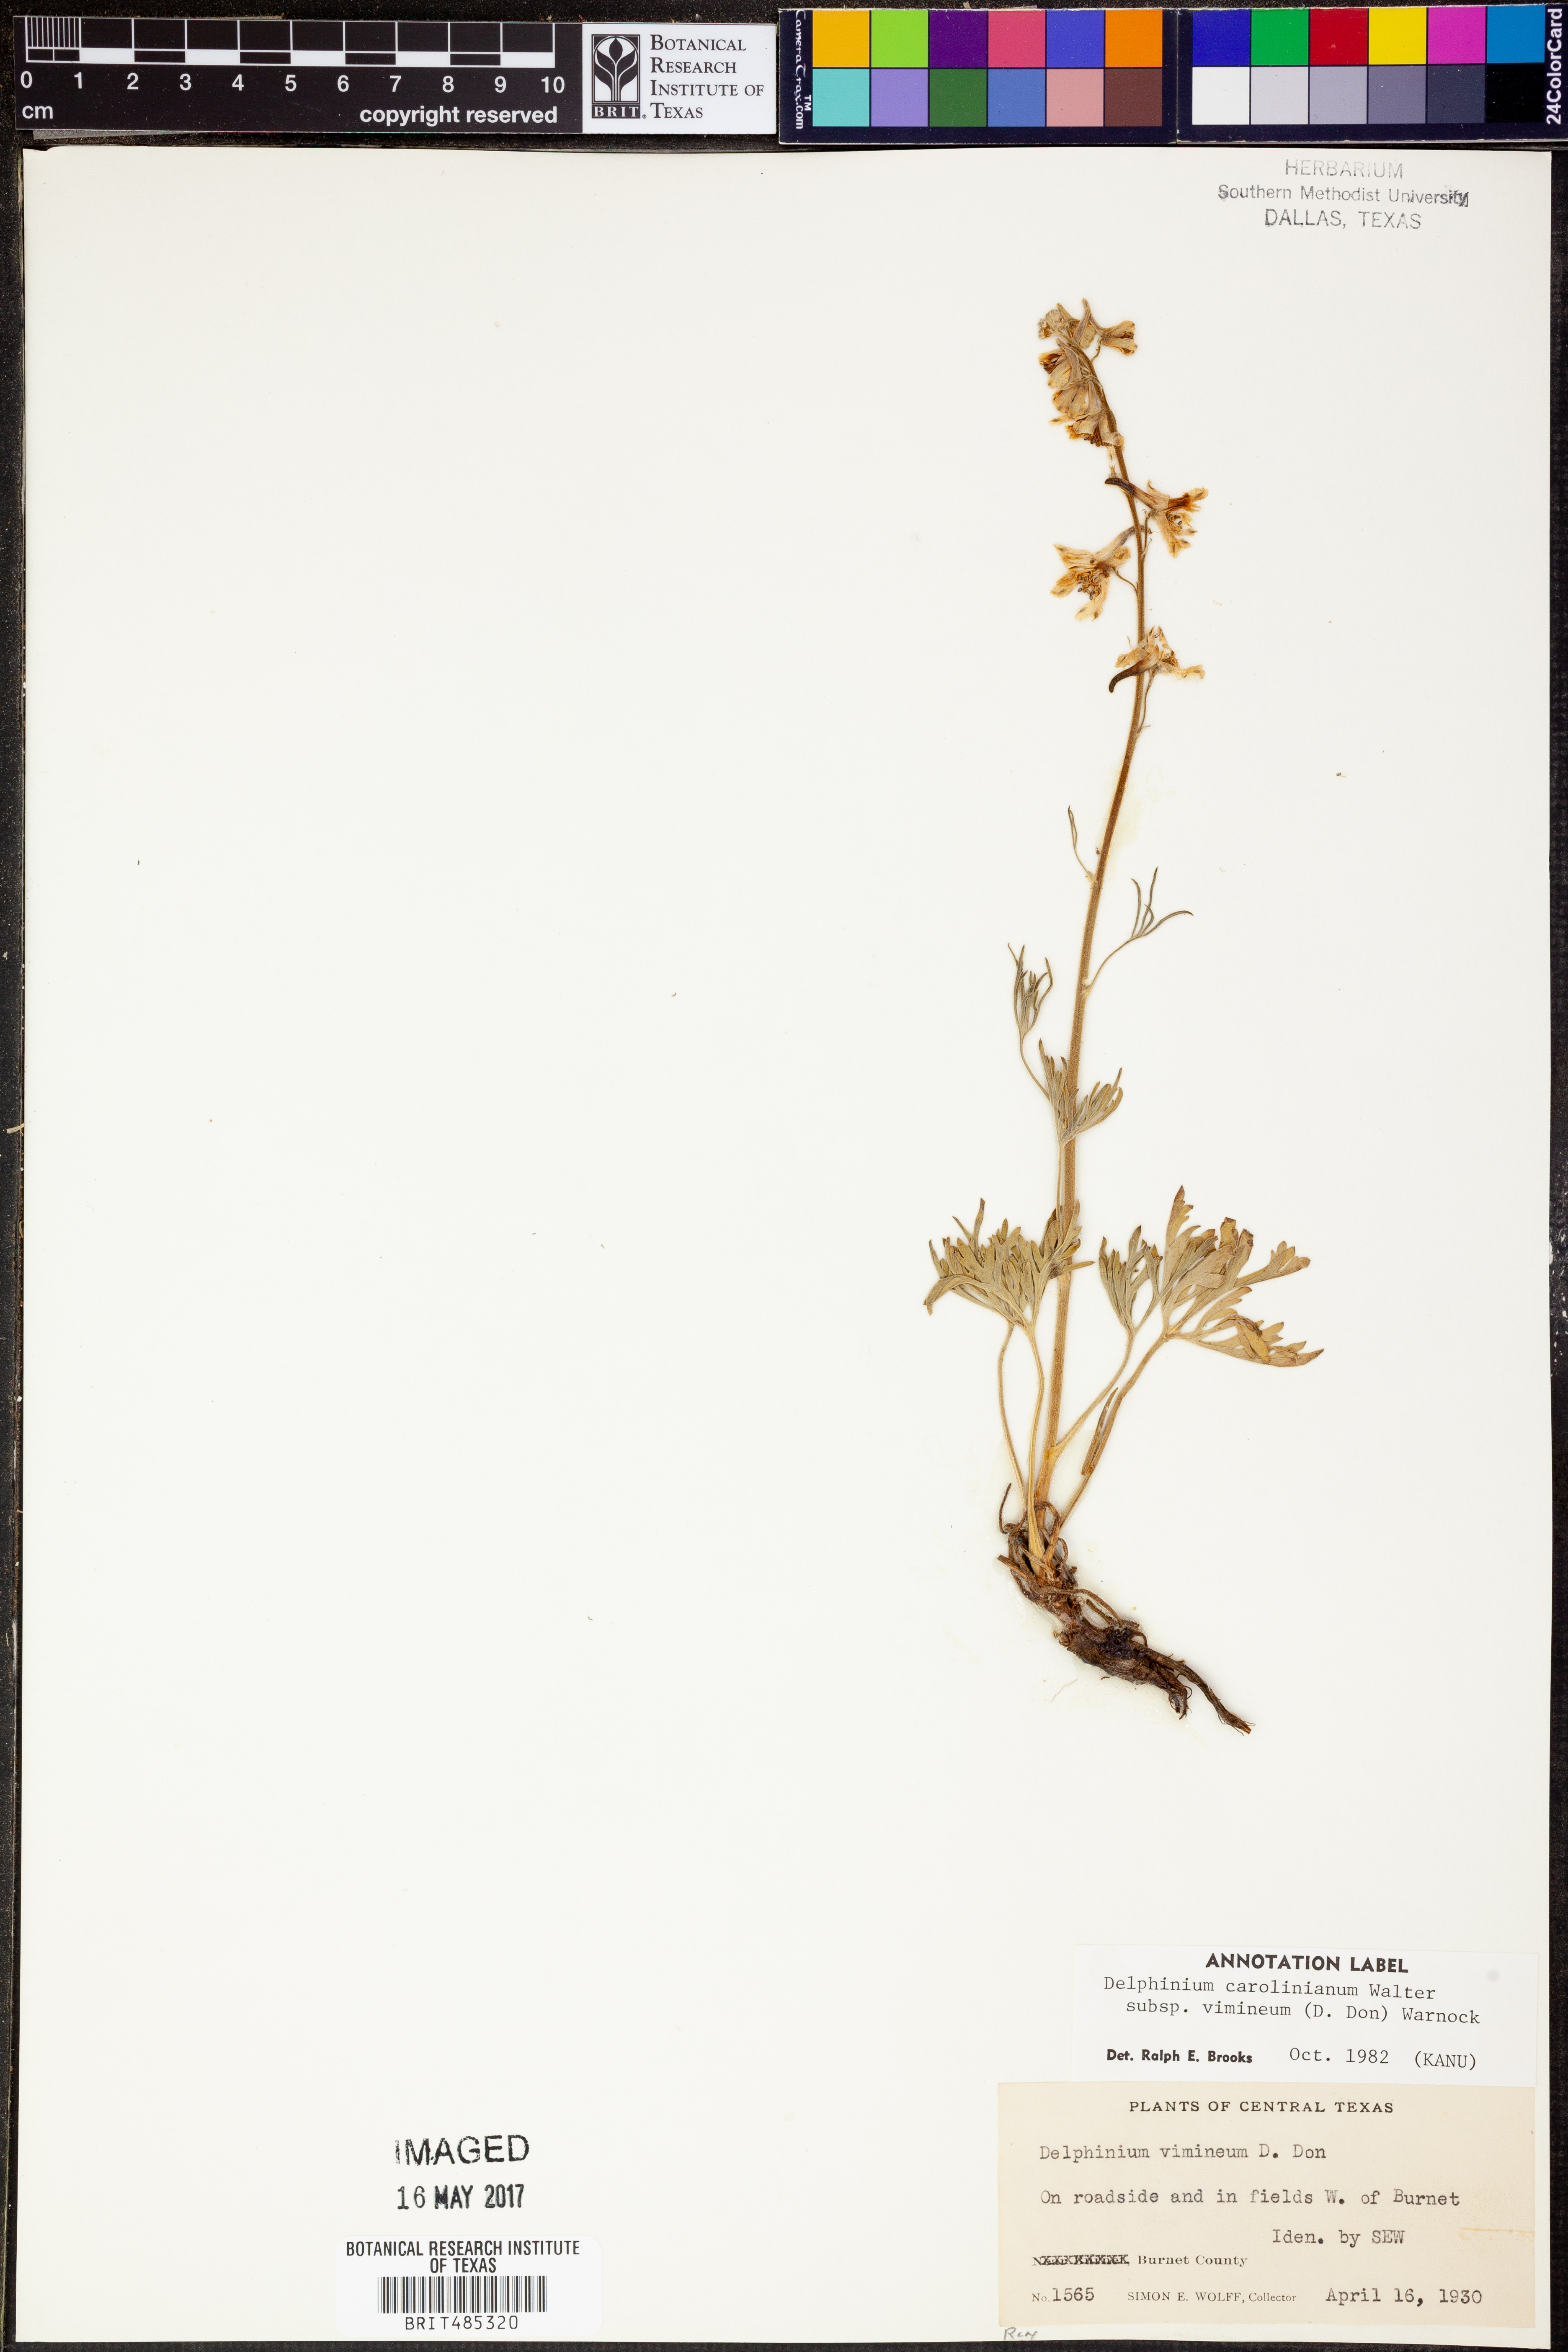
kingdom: Plantae
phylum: Tracheophyta
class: Magnoliopsida
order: Ranunculales
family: Ranunculaceae
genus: Delphinium
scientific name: Delphinium carolinianum
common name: Carolina larkspur
